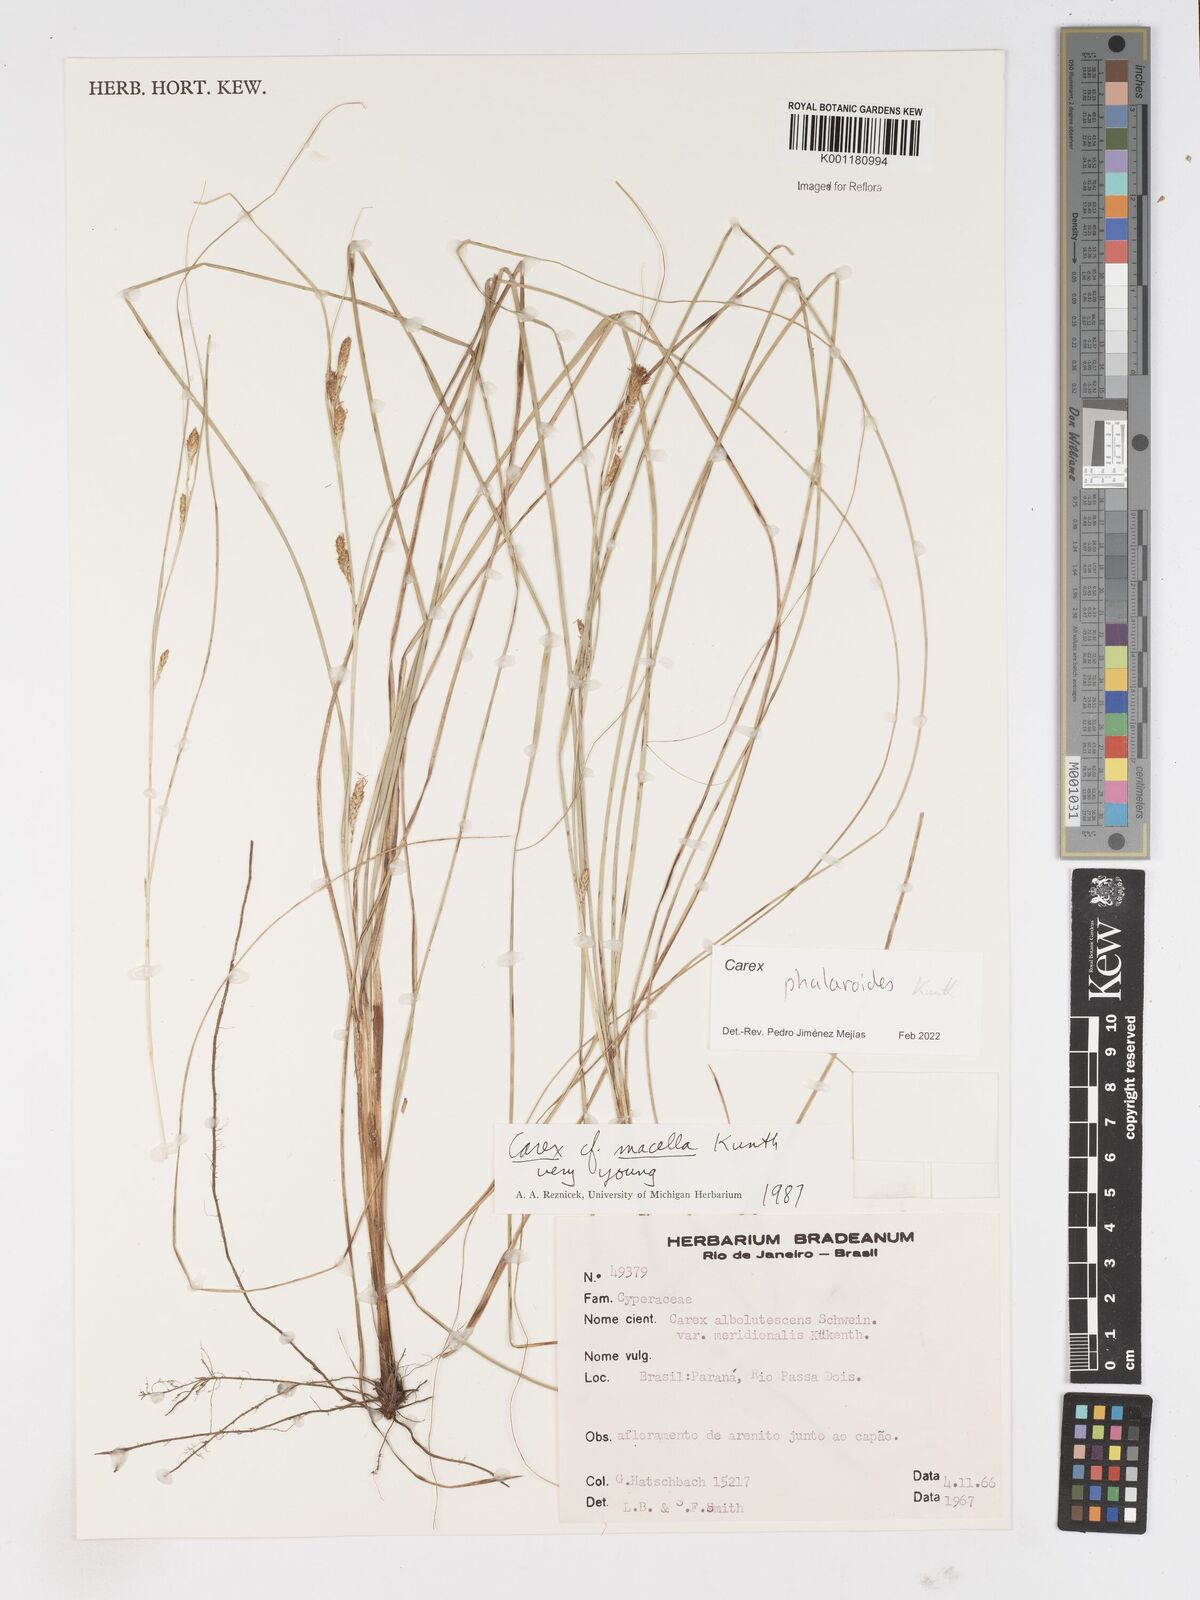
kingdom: Plantae
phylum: Tracheophyta
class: Liliopsida
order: Poales
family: Cyperaceae
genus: Carex
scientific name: Carex phalaroides
